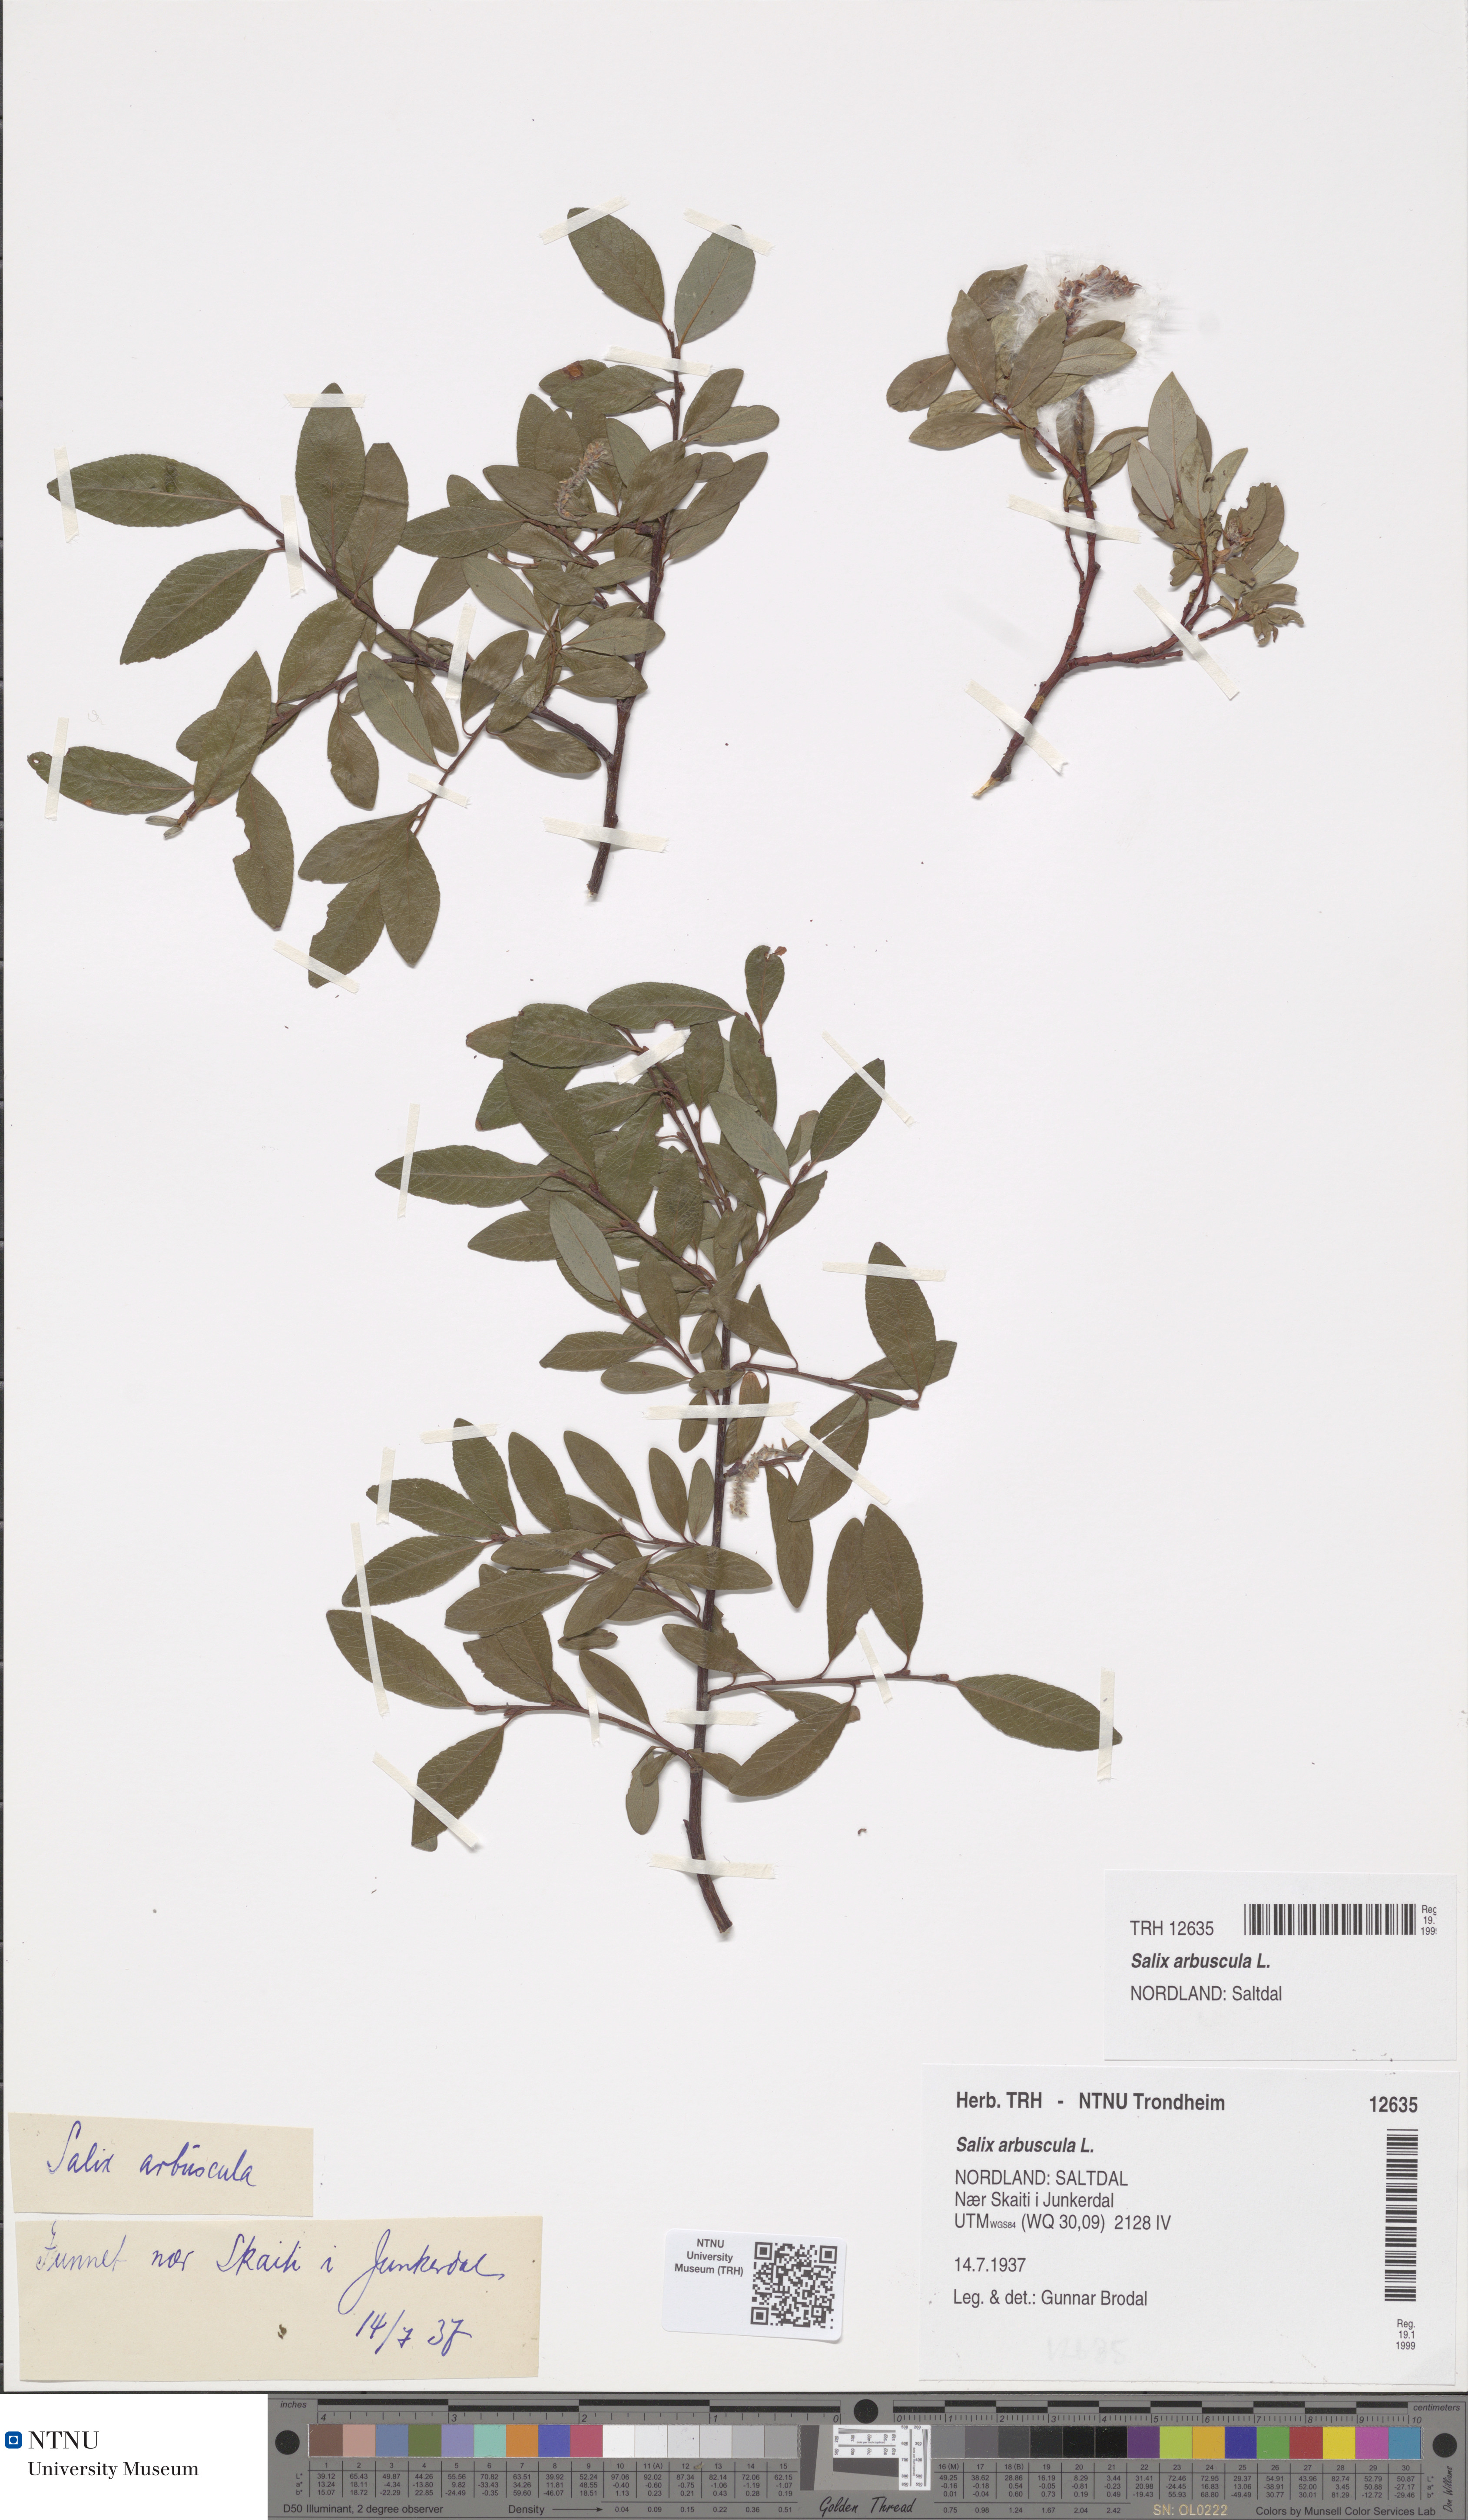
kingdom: Plantae
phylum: Tracheophyta
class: Magnoliopsida
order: Malpighiales
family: Salicaceae
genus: Salix
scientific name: Salix arbuscula
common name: Mountain willow
